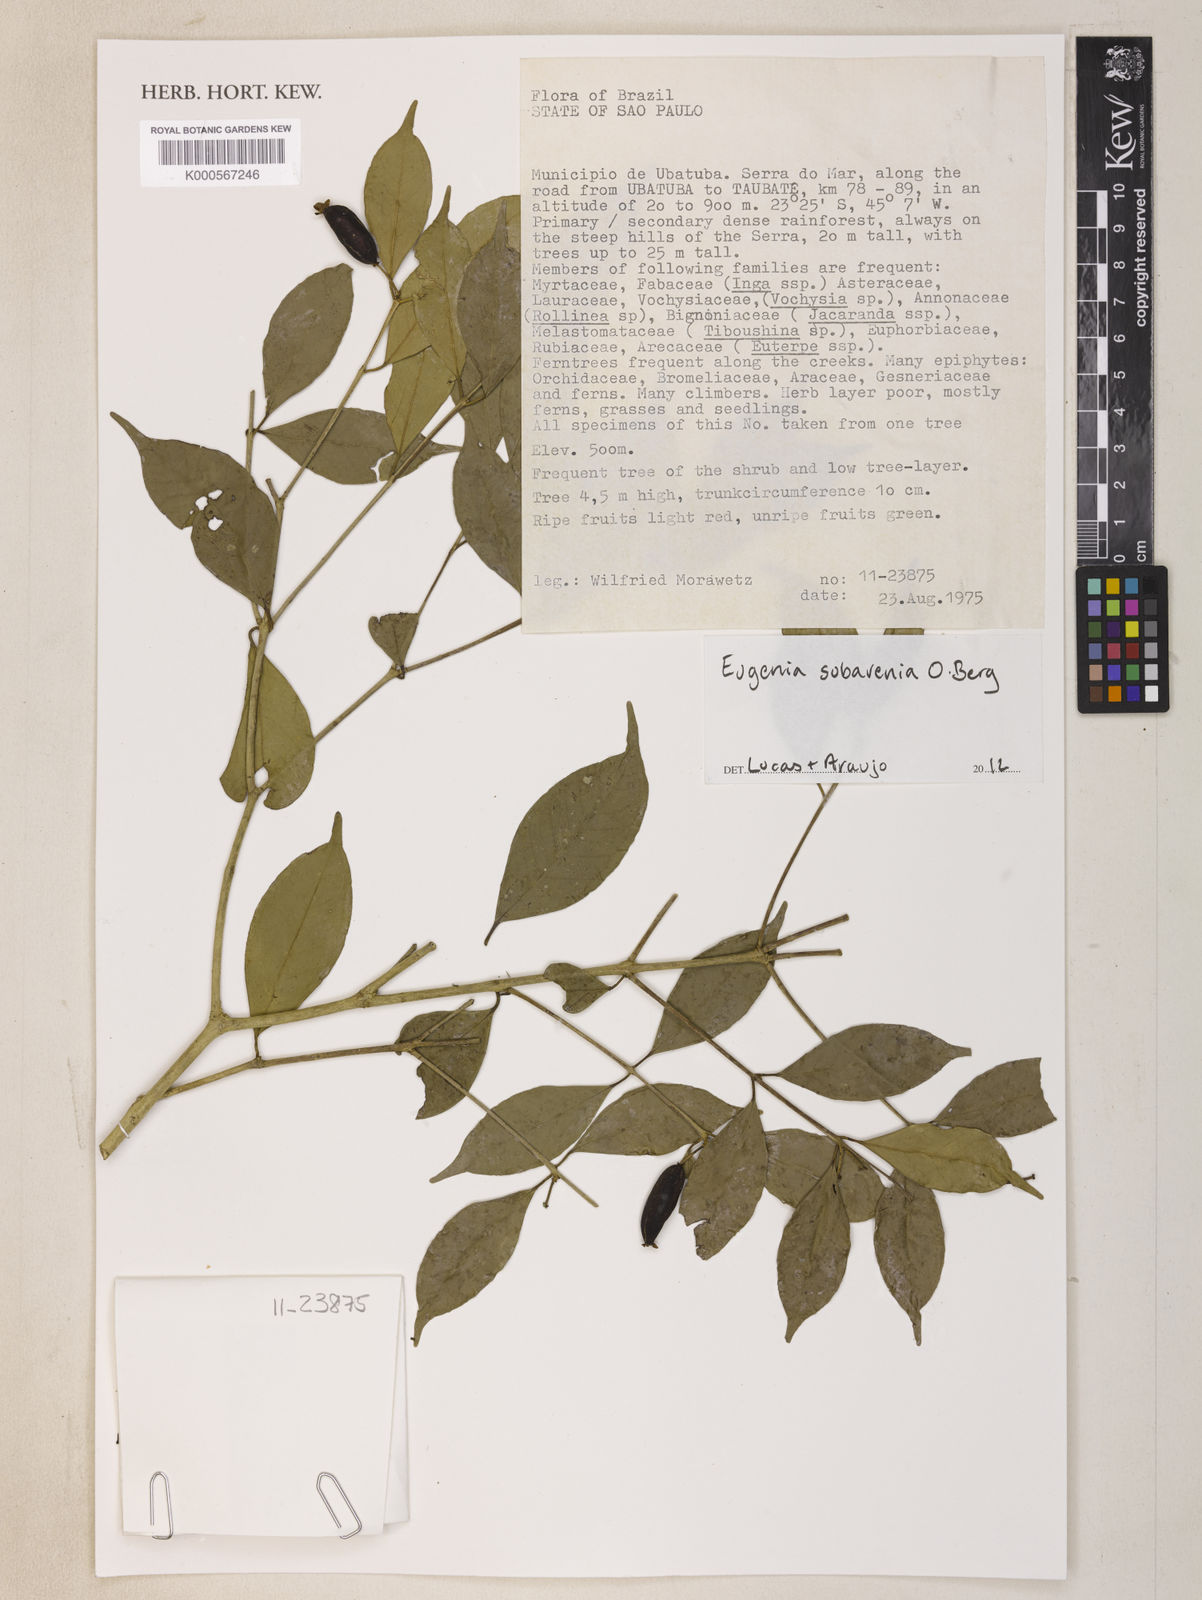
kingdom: Plantae
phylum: Tracheophyta
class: Magnoliopsida
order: Myrtales
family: Myrtaceae
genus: Eugenia
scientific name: Eugenia subavenia
